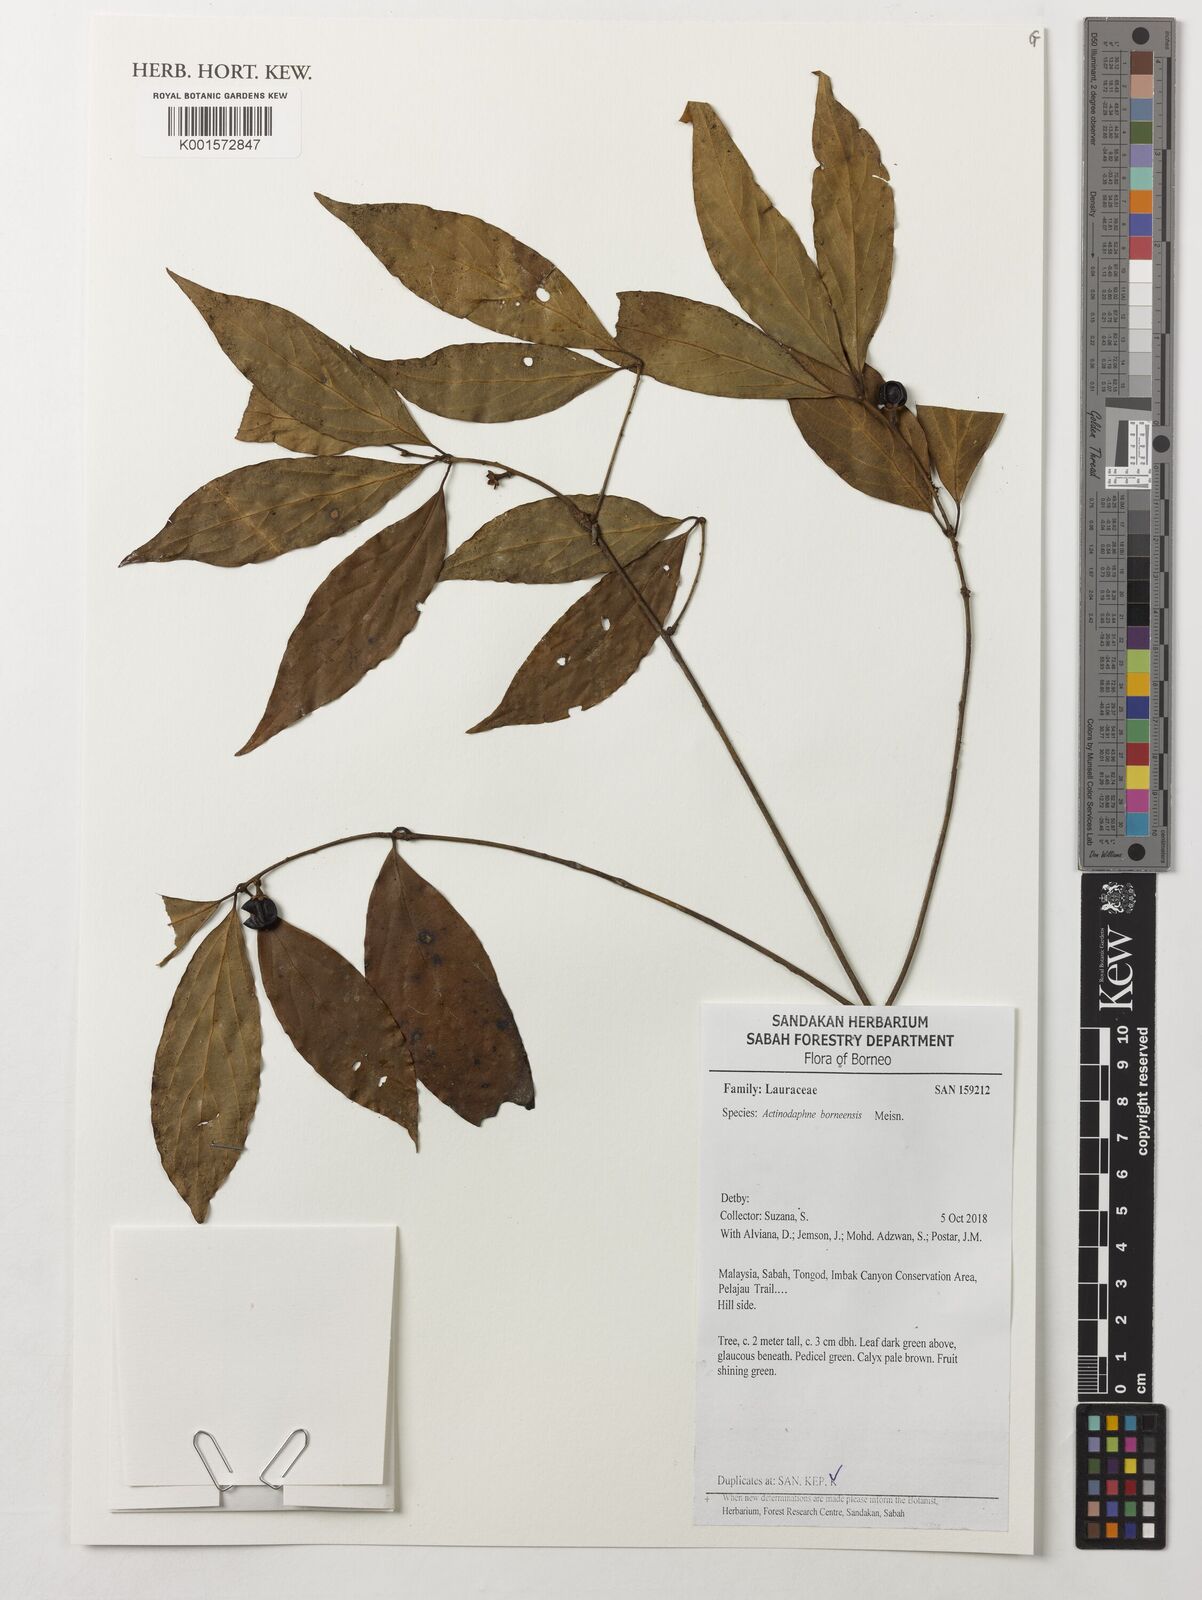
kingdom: Plantae
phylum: Tracheophyta
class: Magnoliopsida
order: Laurales
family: Lauraceae
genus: Actinodaphne
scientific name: Actinodaphne borneensis
